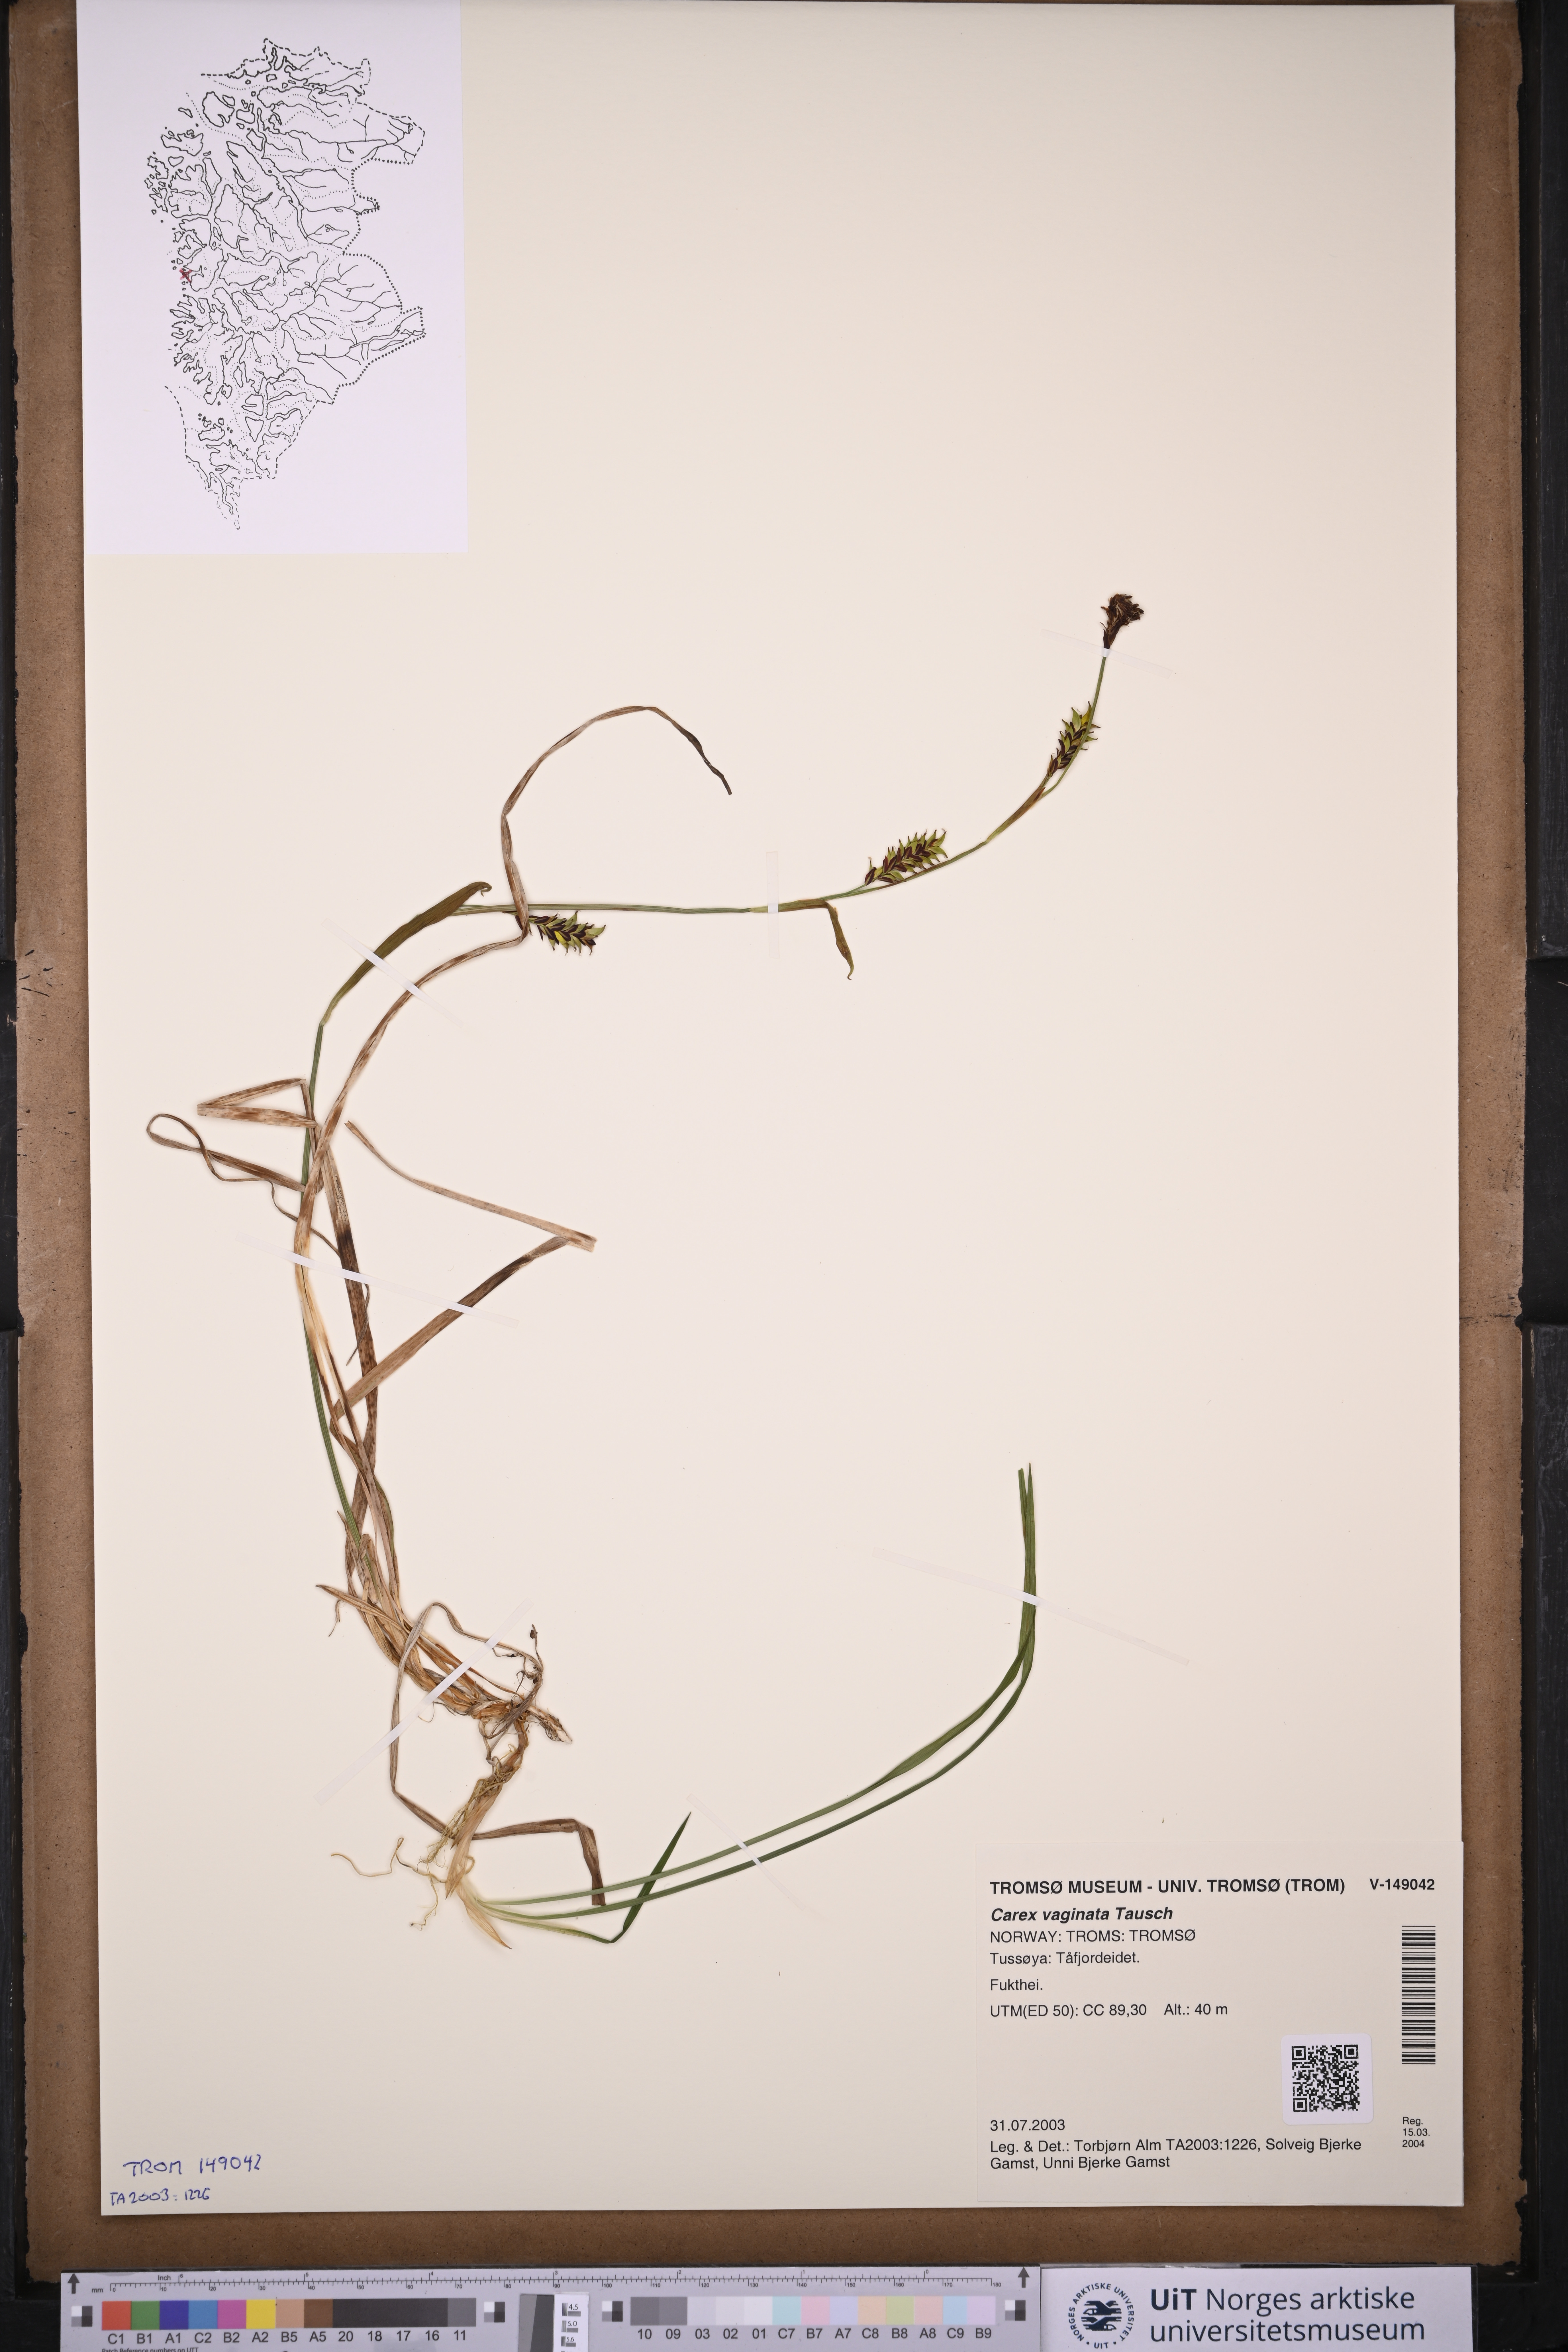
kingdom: Plantae
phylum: Tracheophyta
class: Liliopsida
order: Poales
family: Cyperaceae
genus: Carex
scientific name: Carex vaginata
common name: Sheathed sedge
